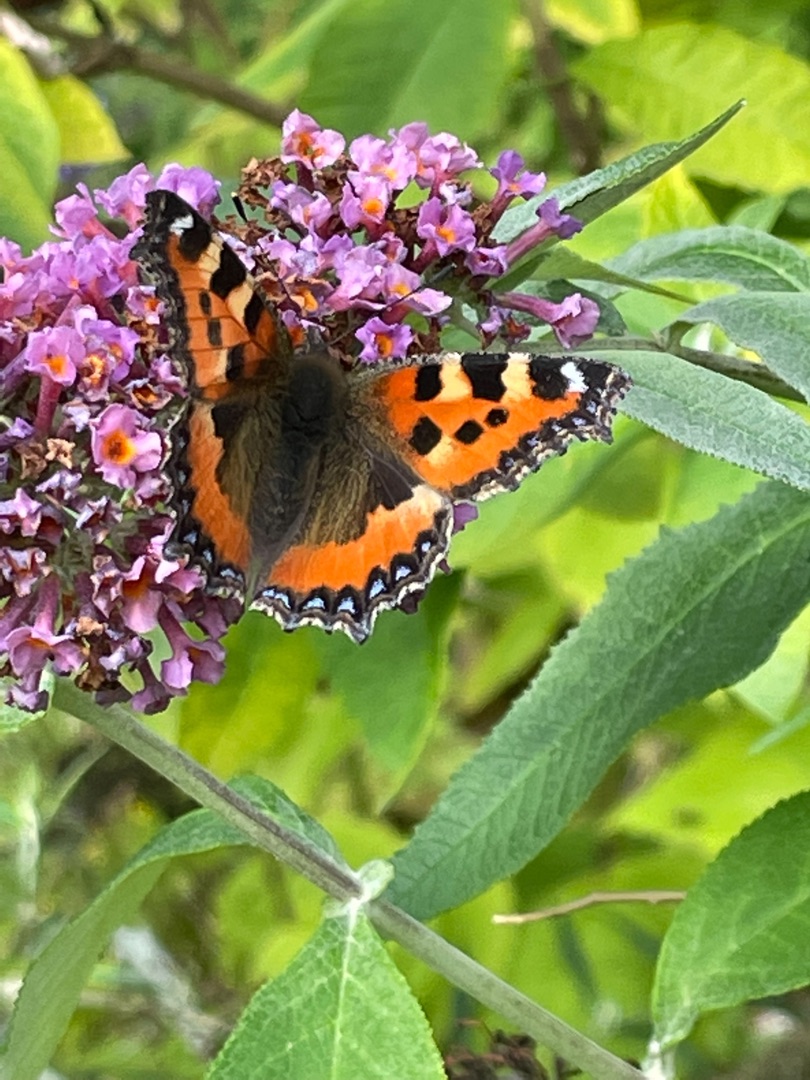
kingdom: Animalia
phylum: Arthropoda
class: Insecta
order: Lepidoptera
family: Nymphalidae
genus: Aglais
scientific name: Aglais urticae
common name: Nældens takvinge
